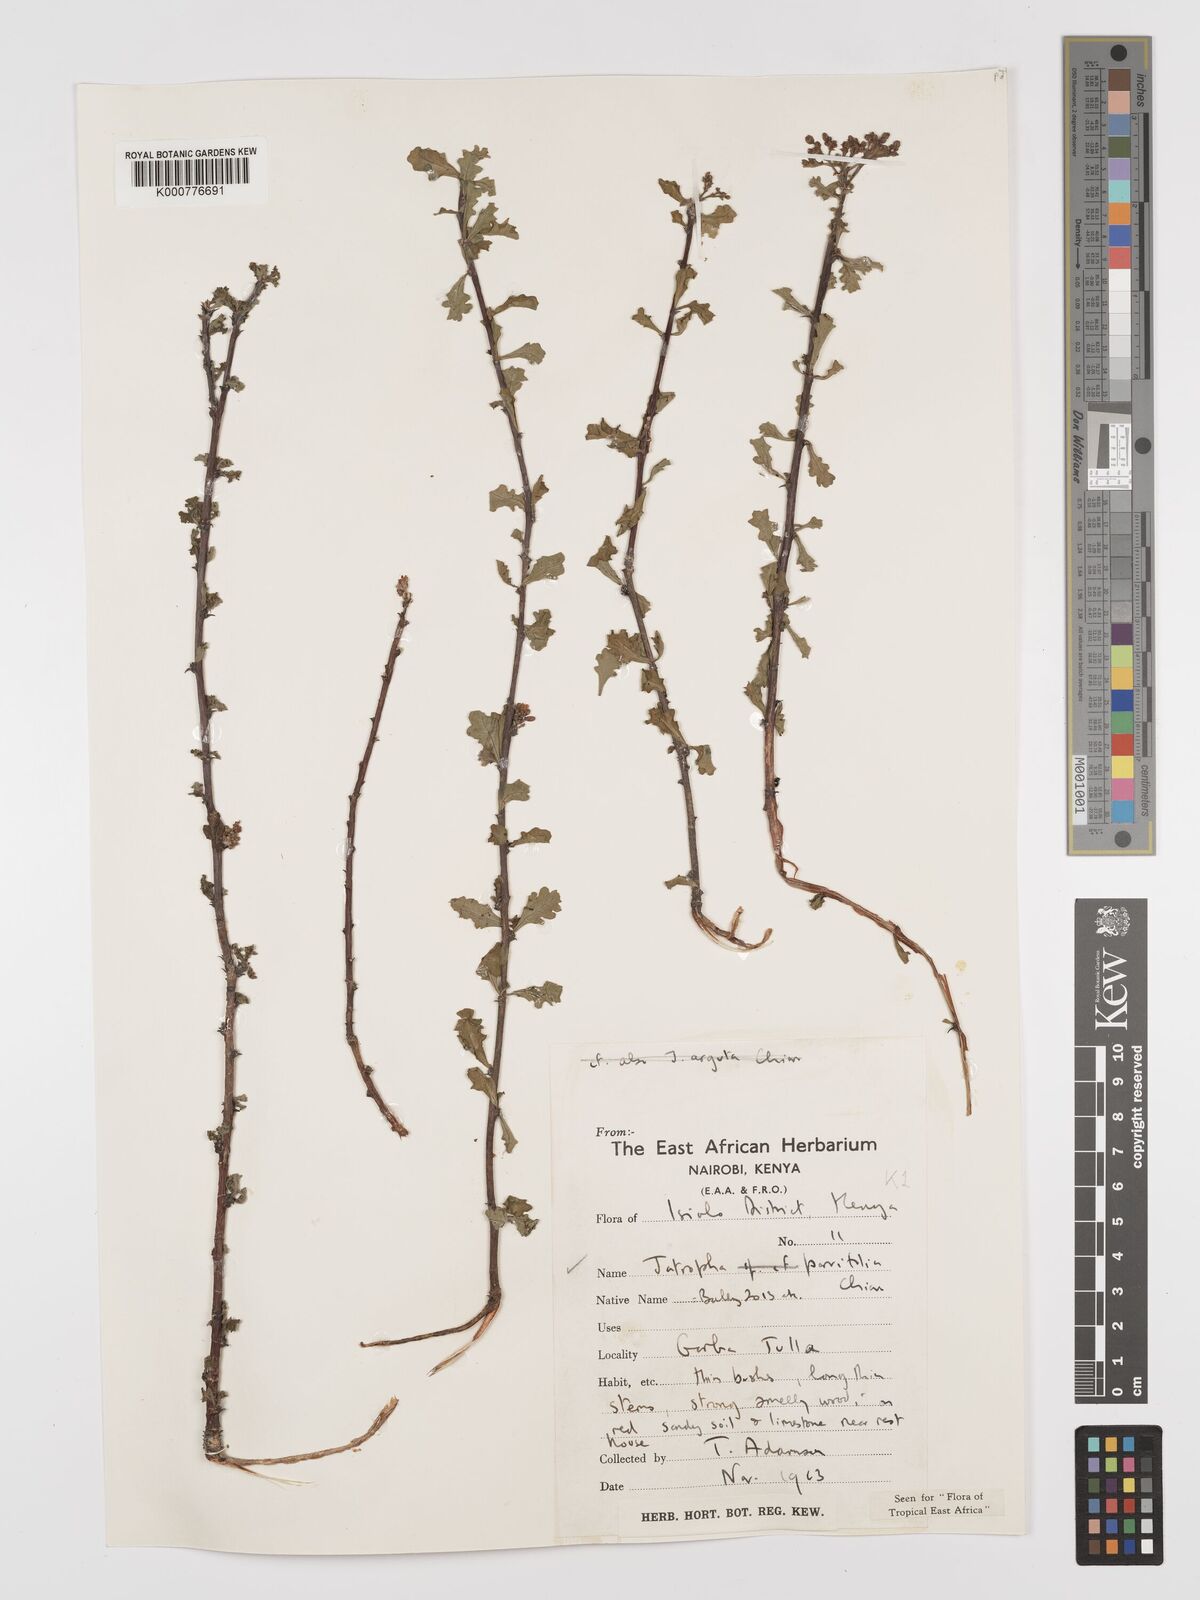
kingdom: Plantae
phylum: Tracheophyta
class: Magnoliopsida
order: Malpighiales
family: Euphorbiaceae
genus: Jatropha
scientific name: Jatropha rivae
